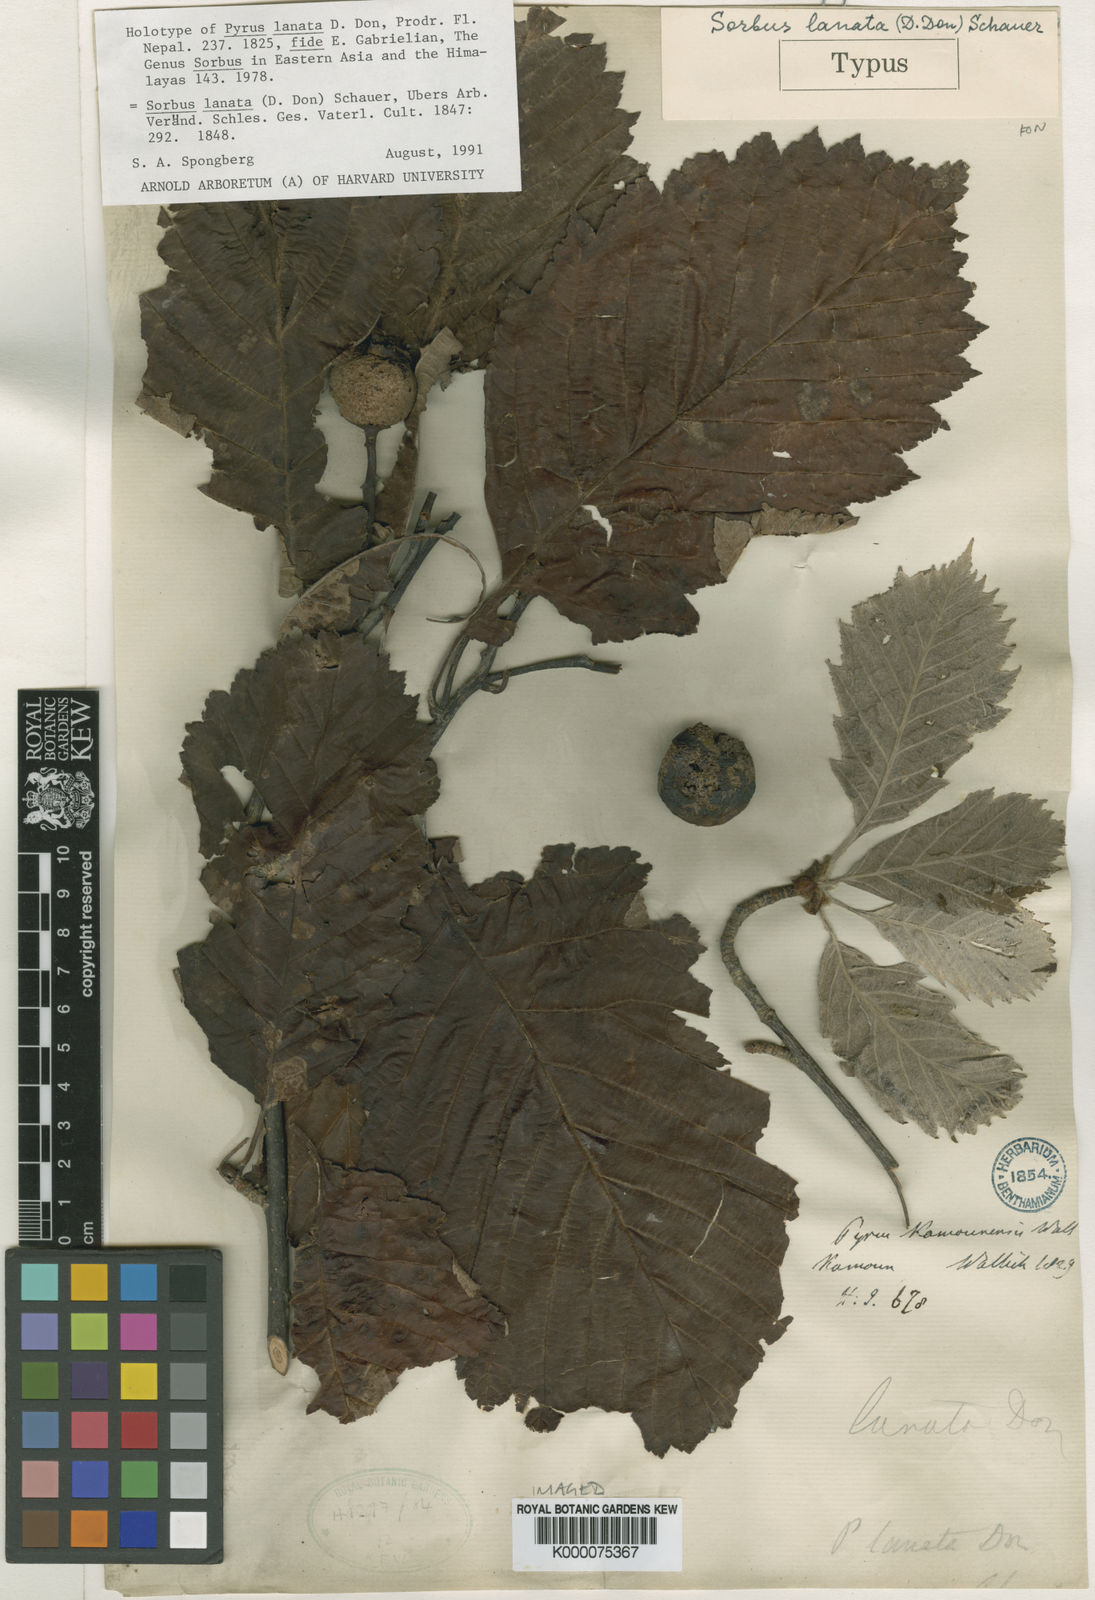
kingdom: Plantae
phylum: Tracheophyta
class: Magnoliopsida
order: Rosales
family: Rosaceae
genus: Sorbus
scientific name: Sorbus lanata
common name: Hairy rowan
